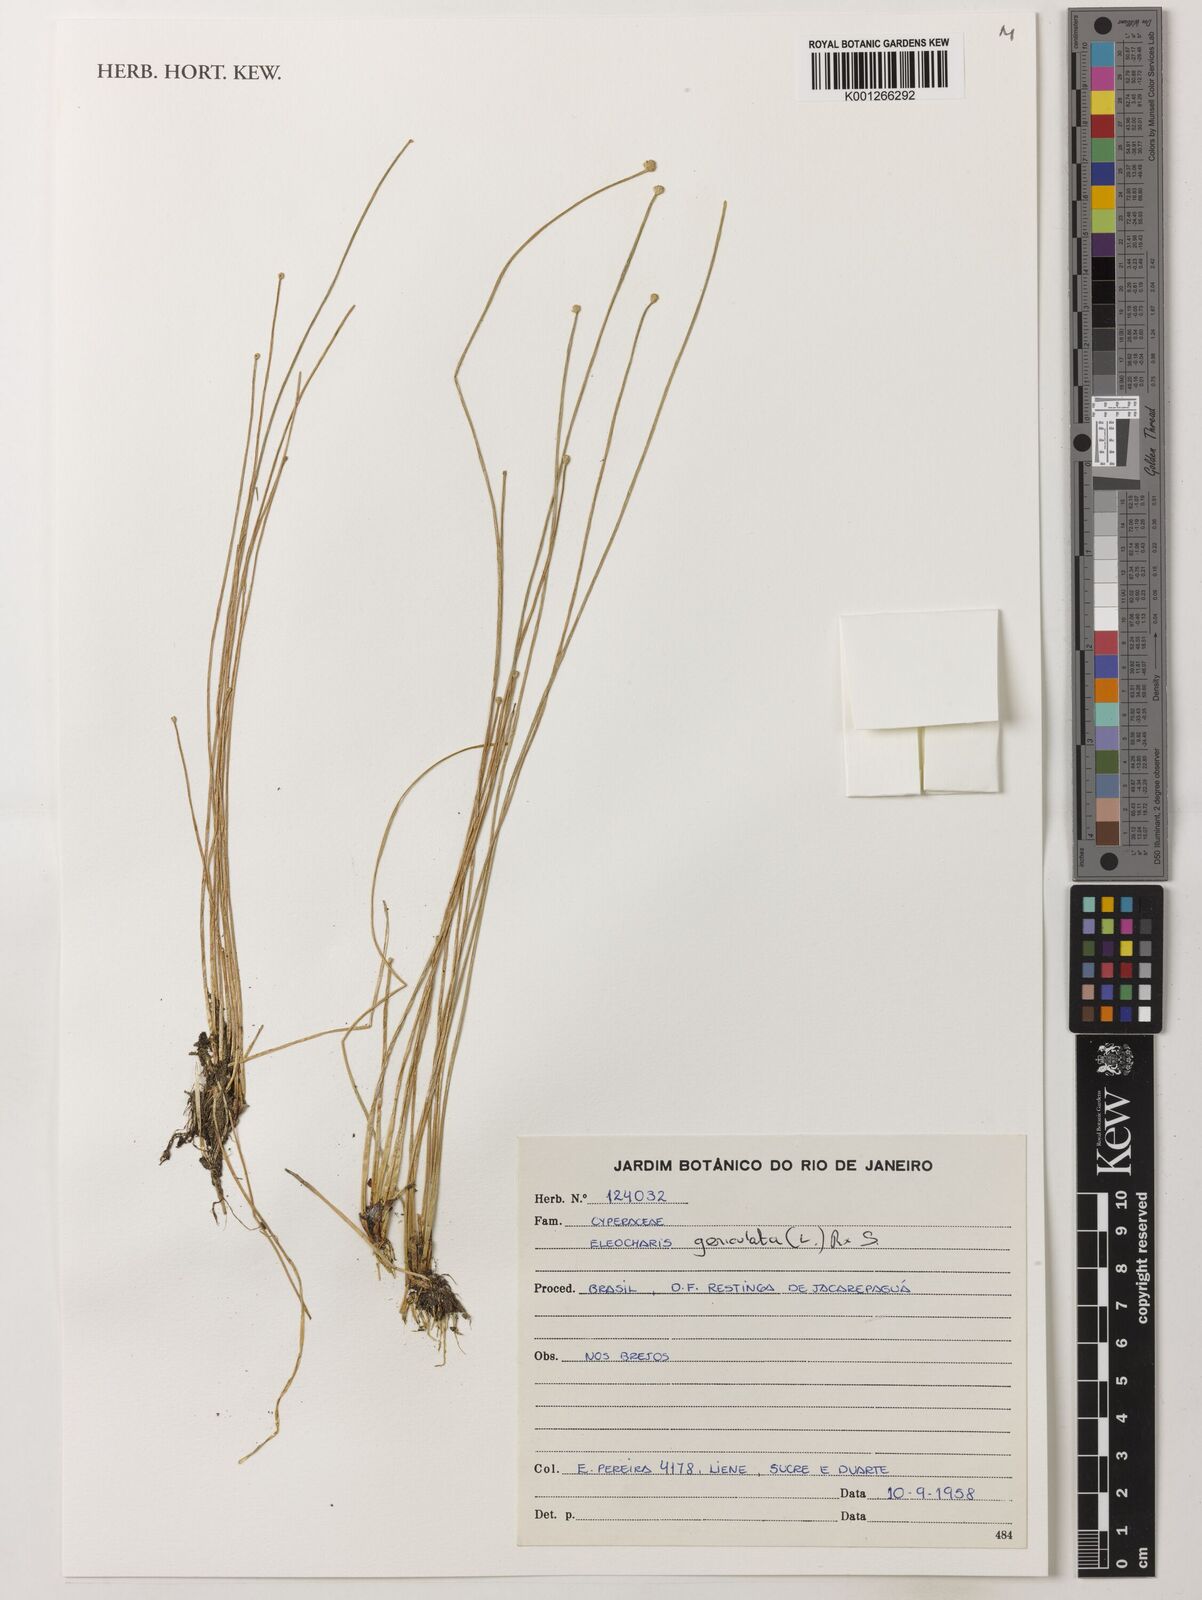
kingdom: Plantae
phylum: Tracheophyta
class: Liliopsida
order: Poales
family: Cyperaceae
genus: Eleocharis
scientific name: Eleocharis geniculata
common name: Canada spikesedge
